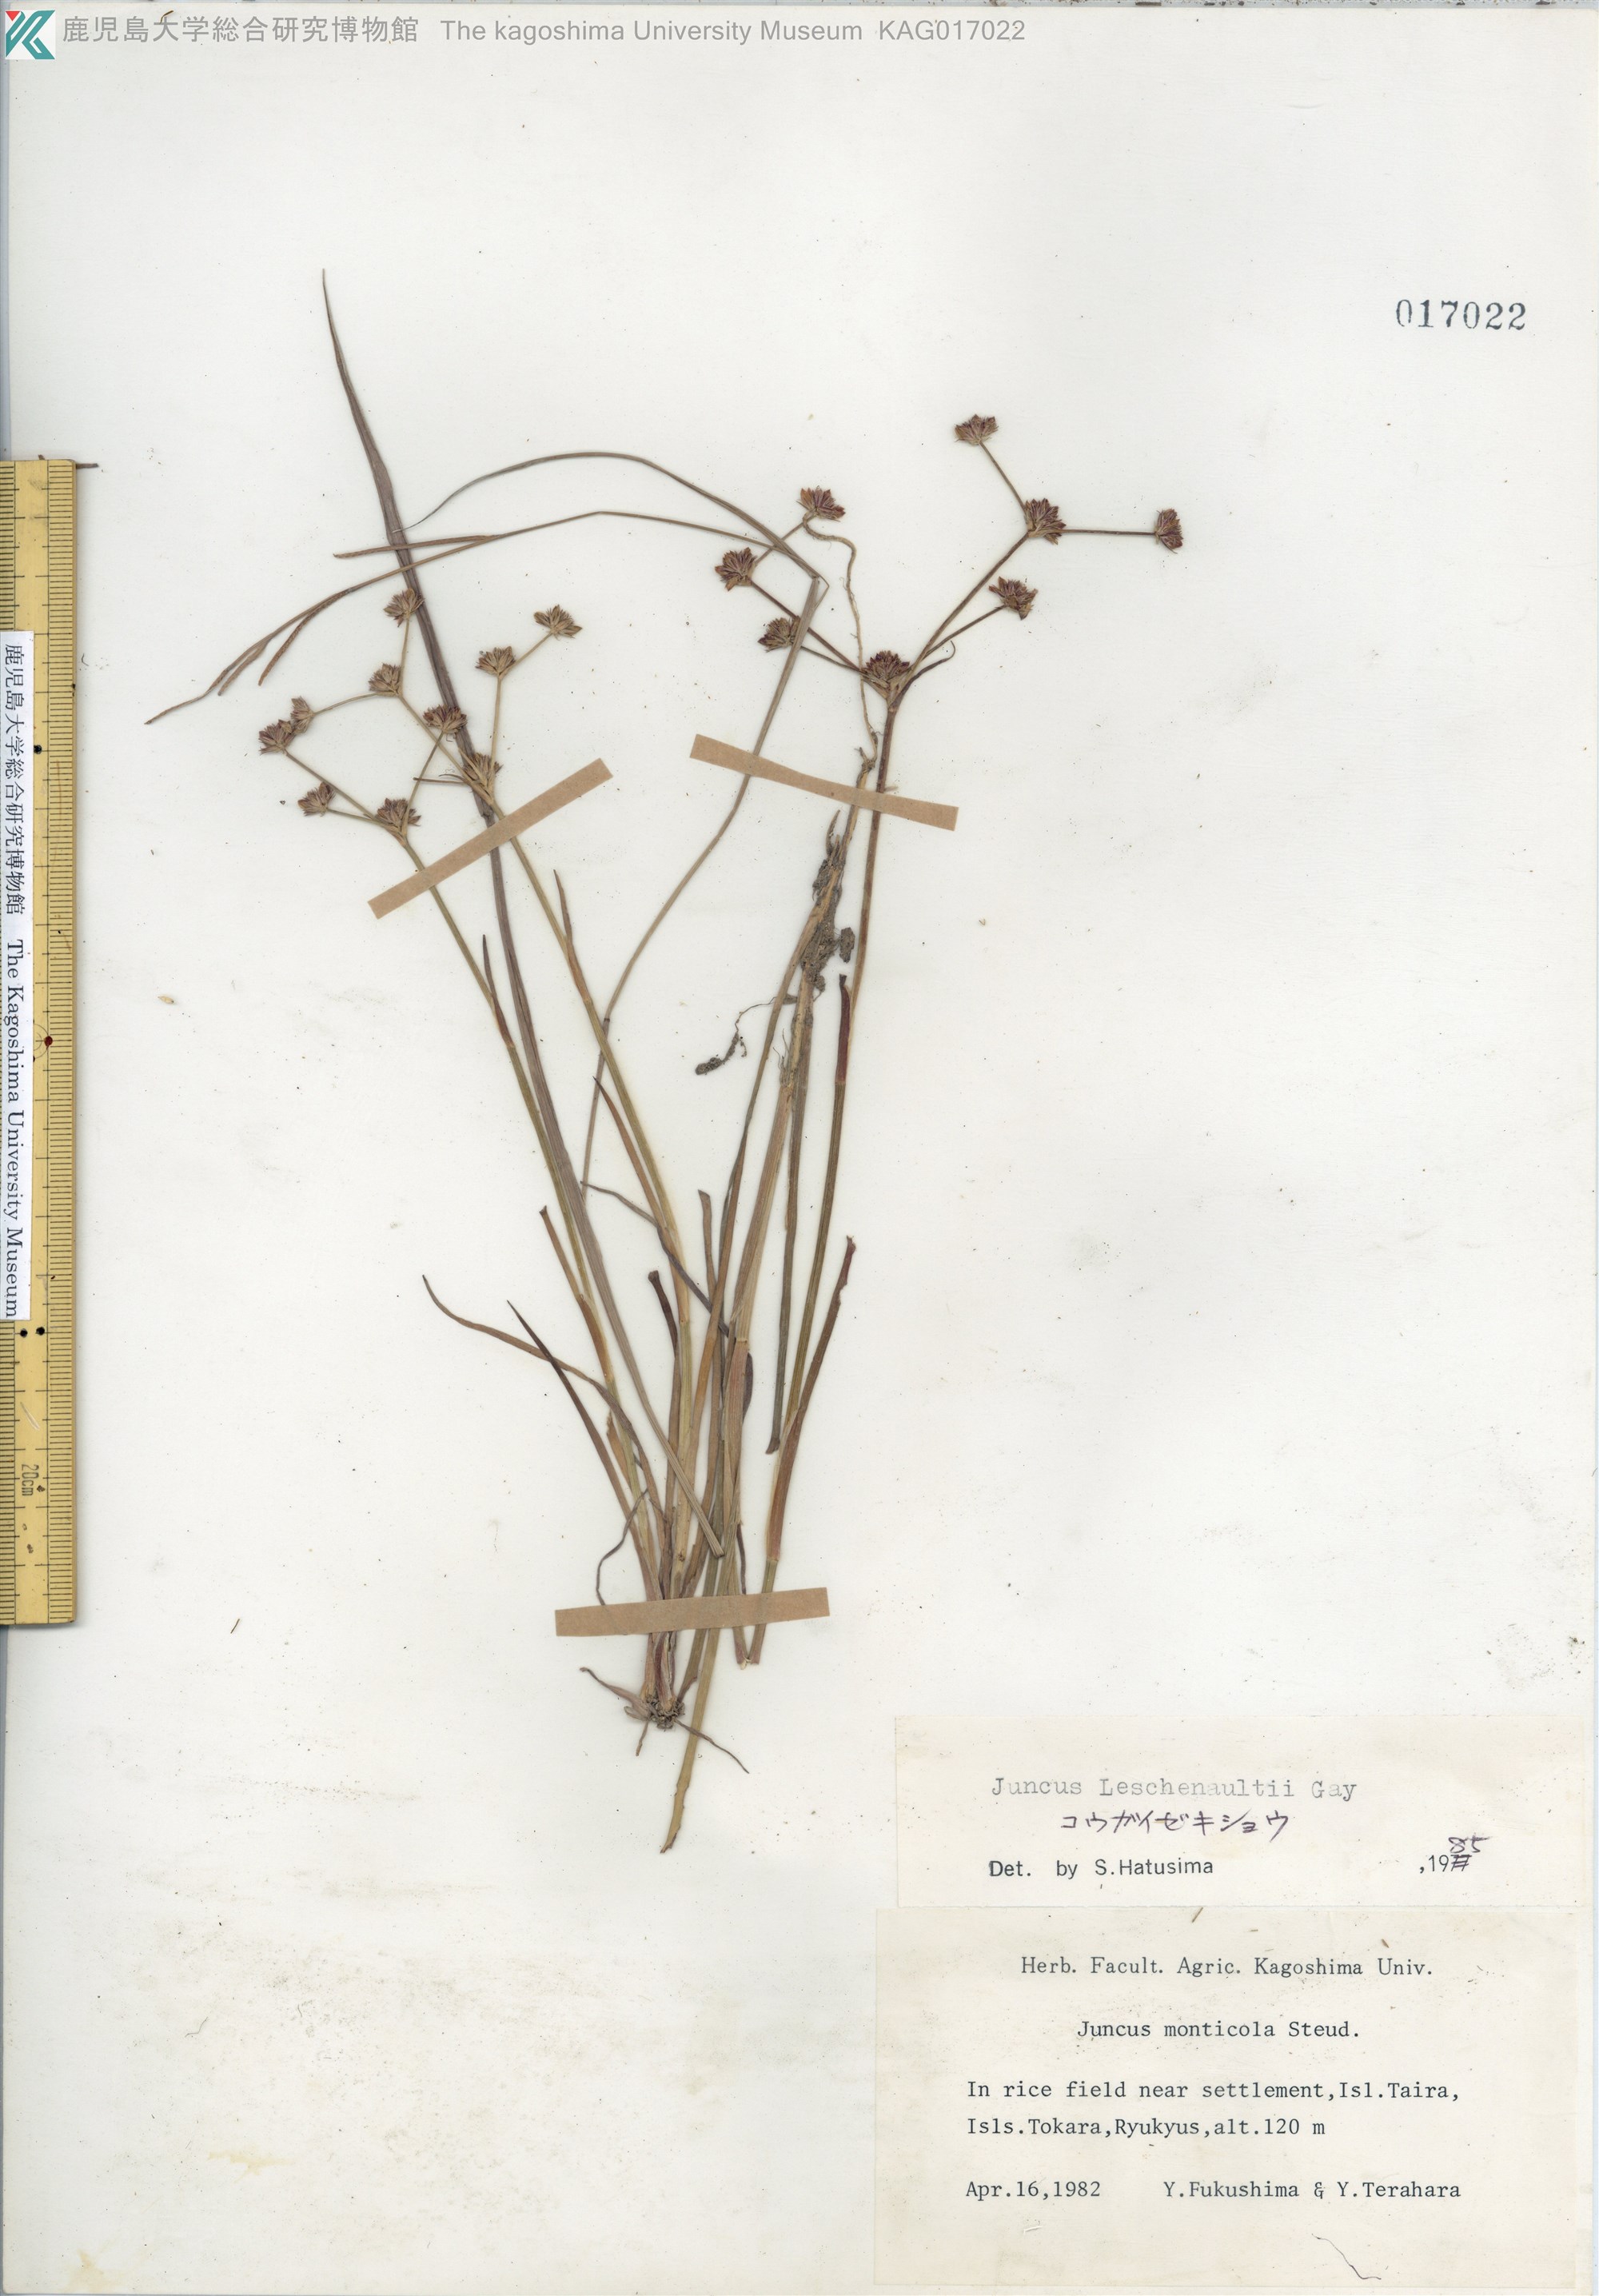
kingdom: Plantae
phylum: Tracheophyta
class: Liliopsida
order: Poales
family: Juncaceae
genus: Juncus
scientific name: Juncus prismatocarpus
